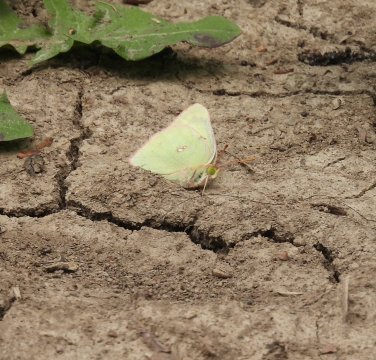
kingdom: Animalia
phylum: Arthropoda
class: Insecta
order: Lepidoptera
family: Pieridae
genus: Colias
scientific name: Colias philodice
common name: Clouded Sulphur
